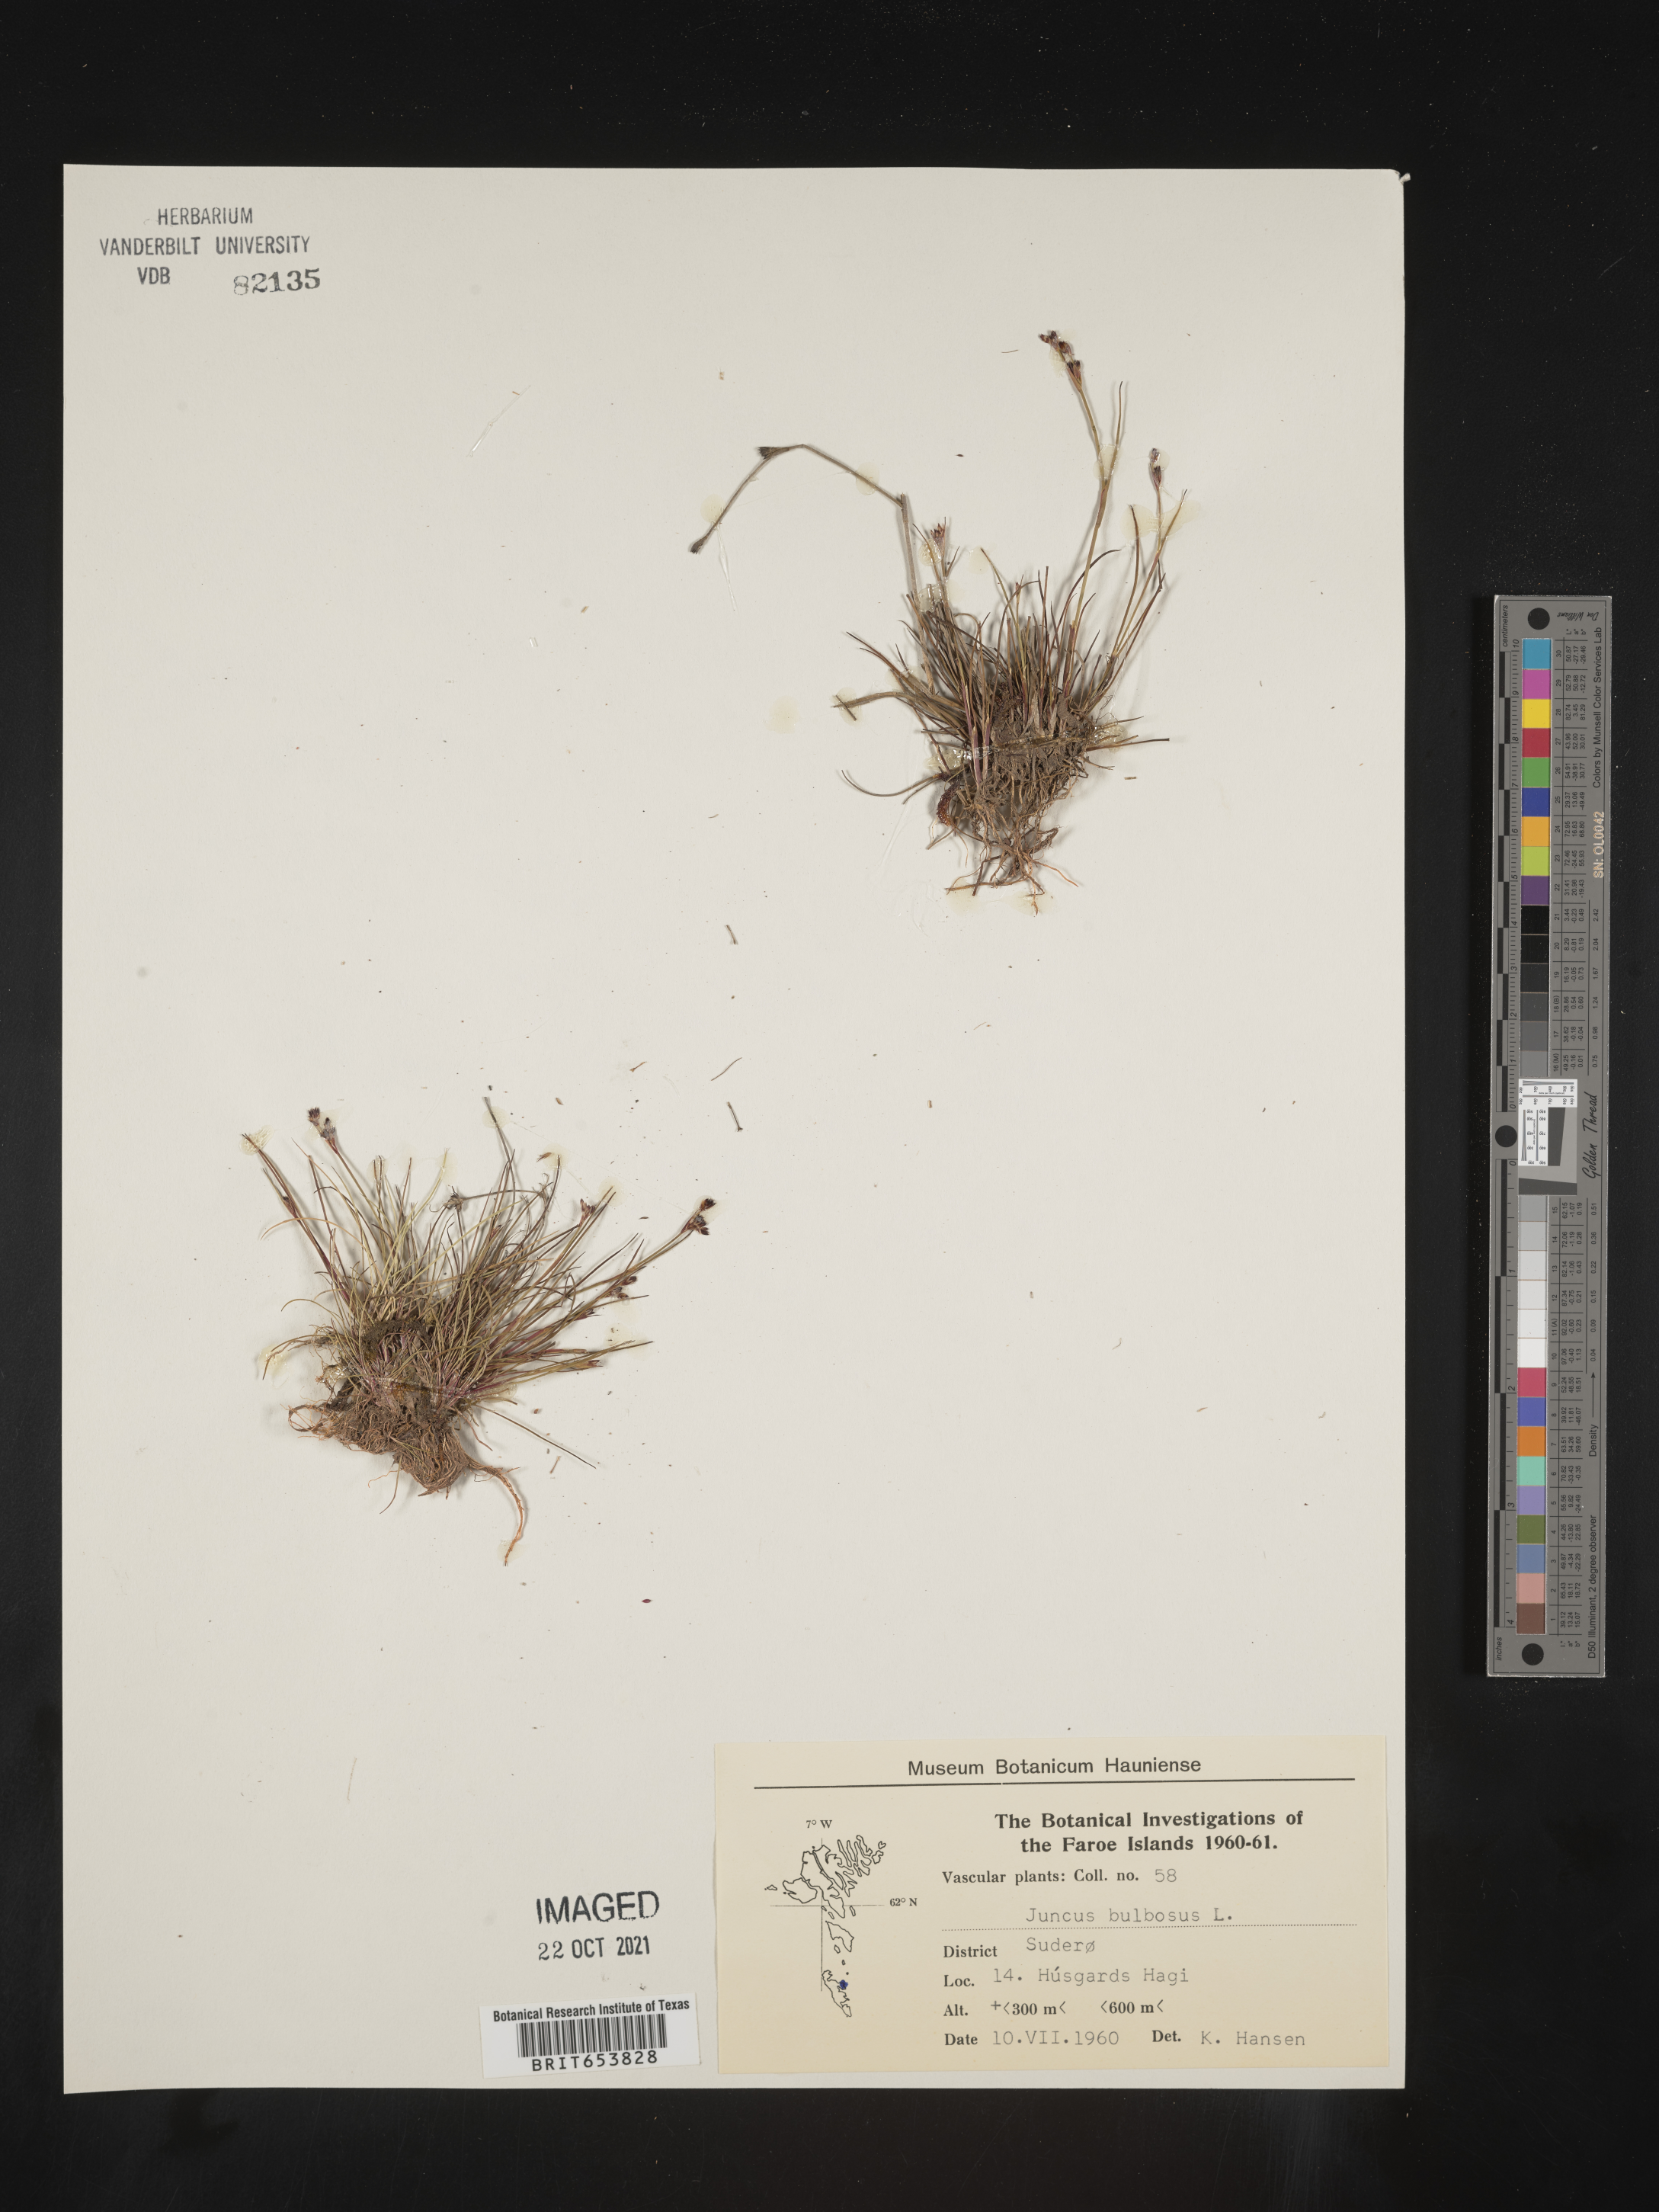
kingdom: Plantae
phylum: Tracheophyta
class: Liliopsida
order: Poales
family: Juncaceae
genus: Juncus
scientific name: Juncus bulbosus
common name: Bulbous rush
